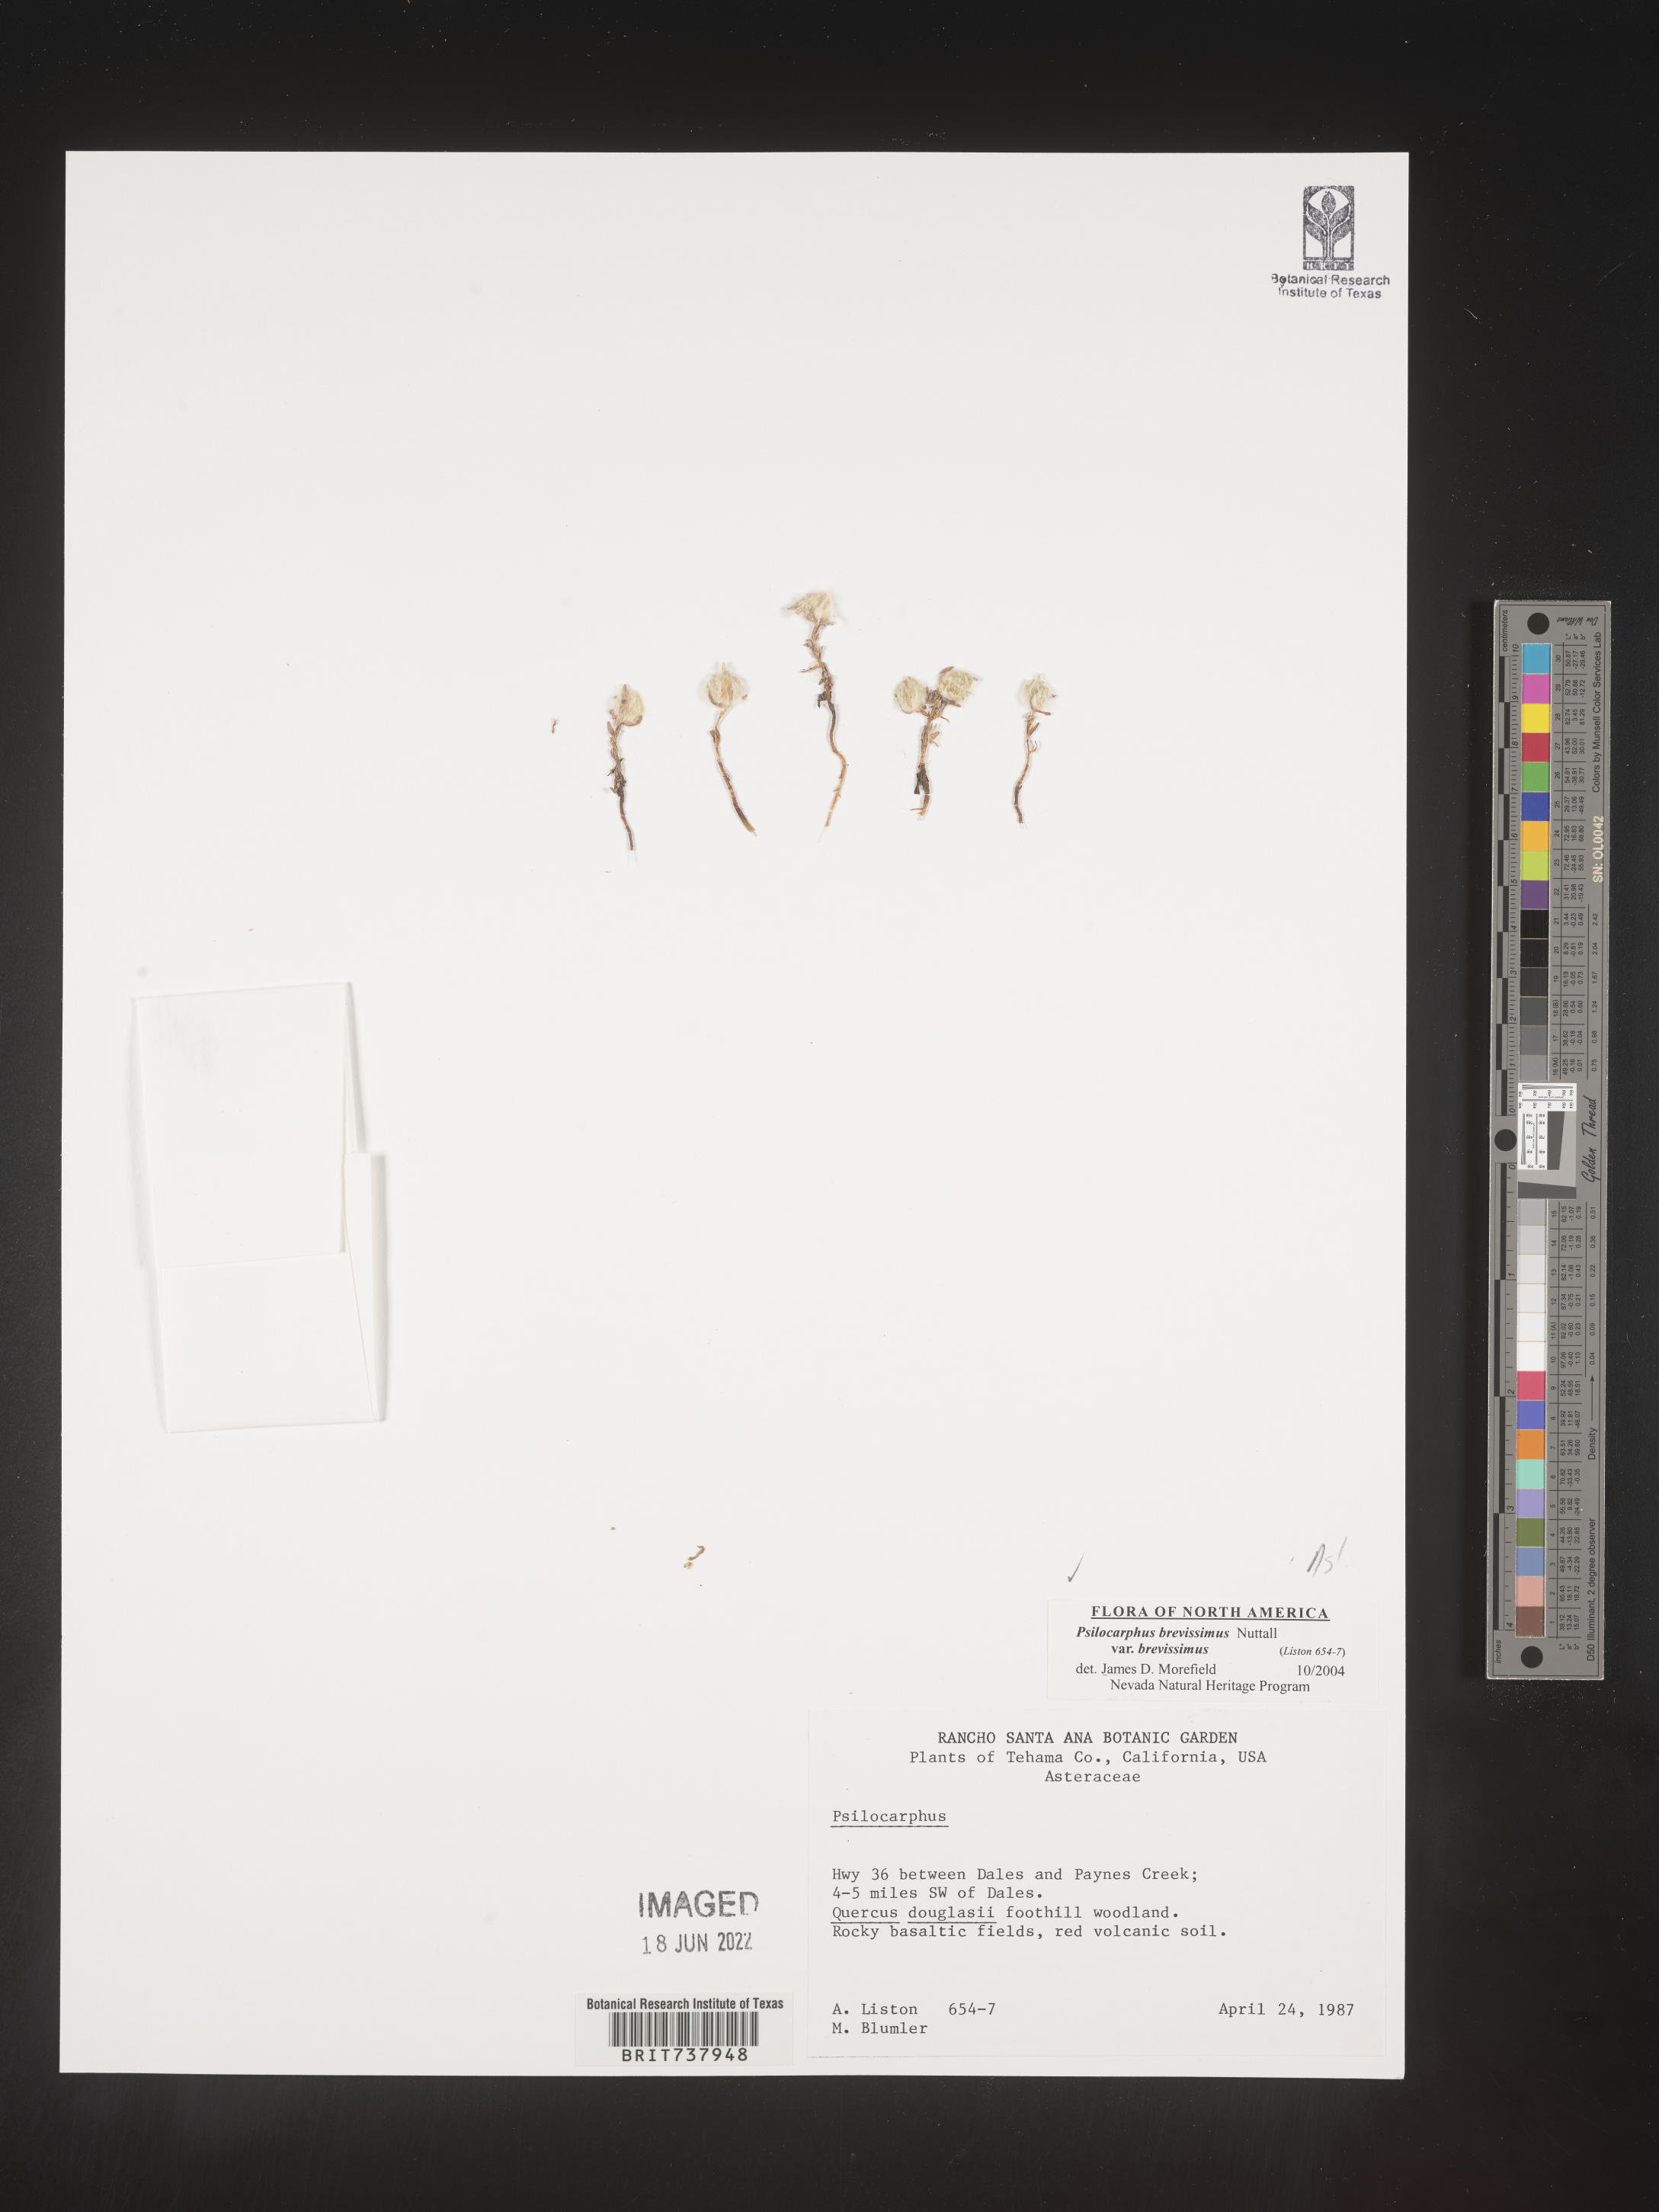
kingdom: Plantae
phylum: Tracheophyta
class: Magnoliopsida
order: Asterales
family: Asteraceae
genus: Psilocarphus
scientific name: Psilocarphus
